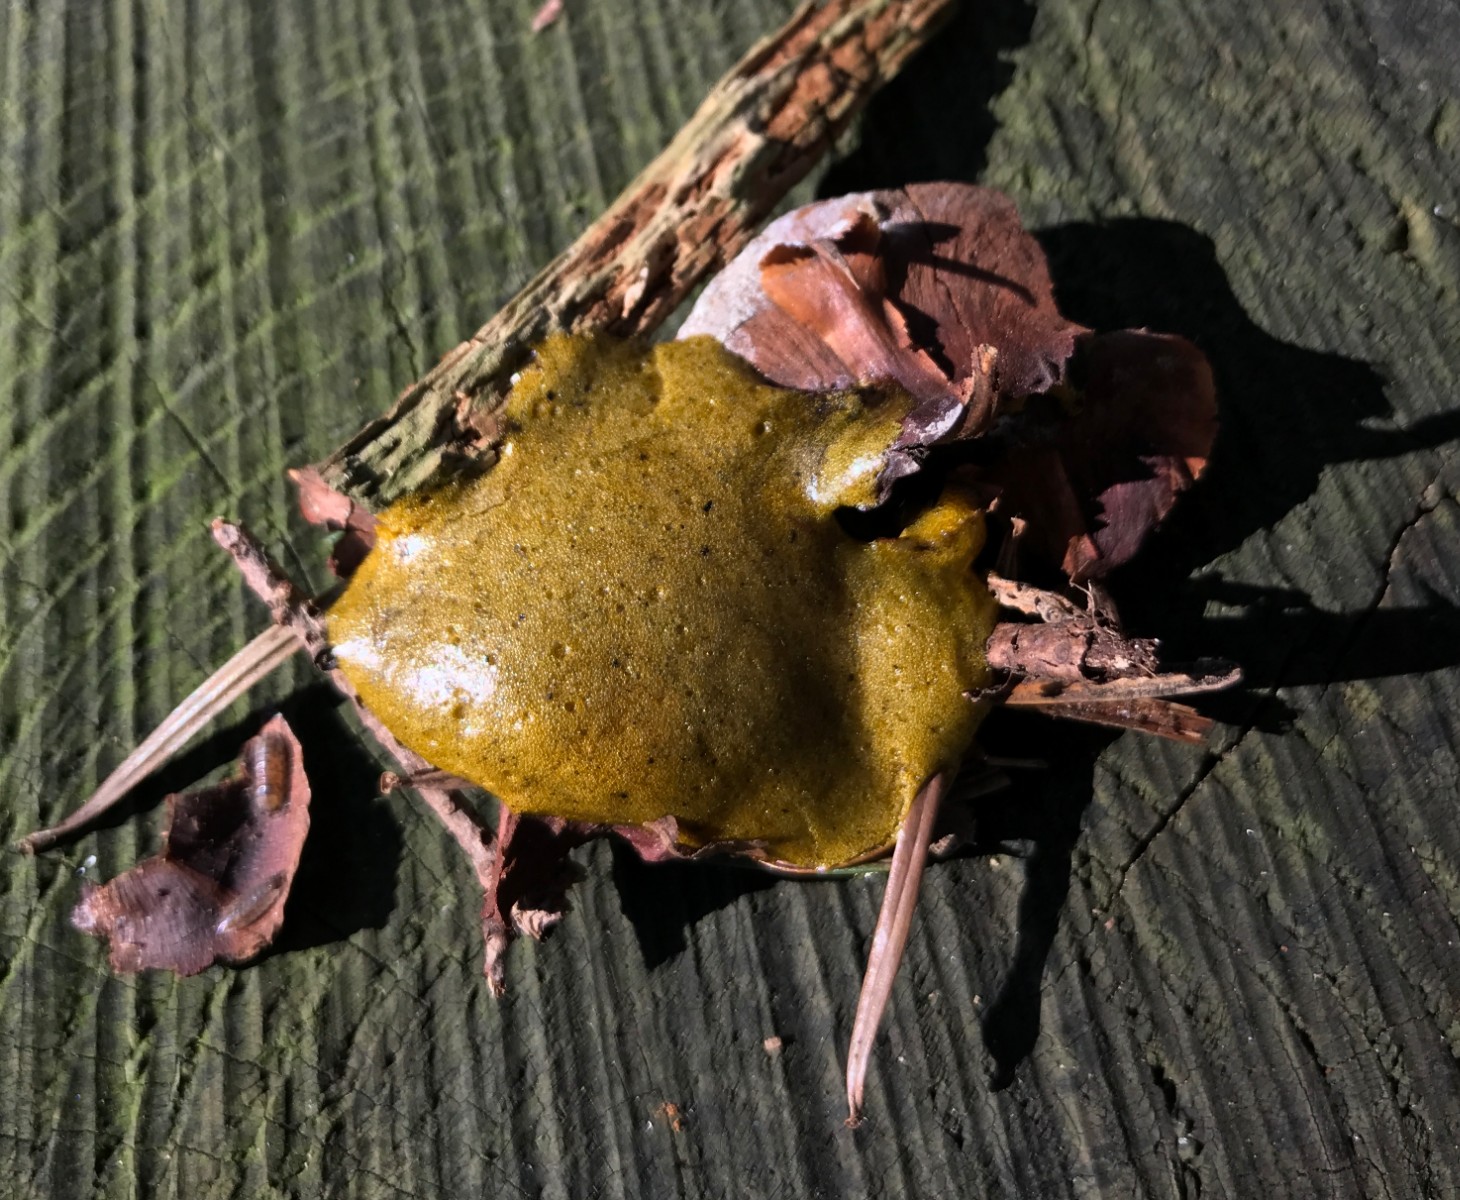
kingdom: Protozoa
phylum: Mycetozoa
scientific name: Mycetozoa
